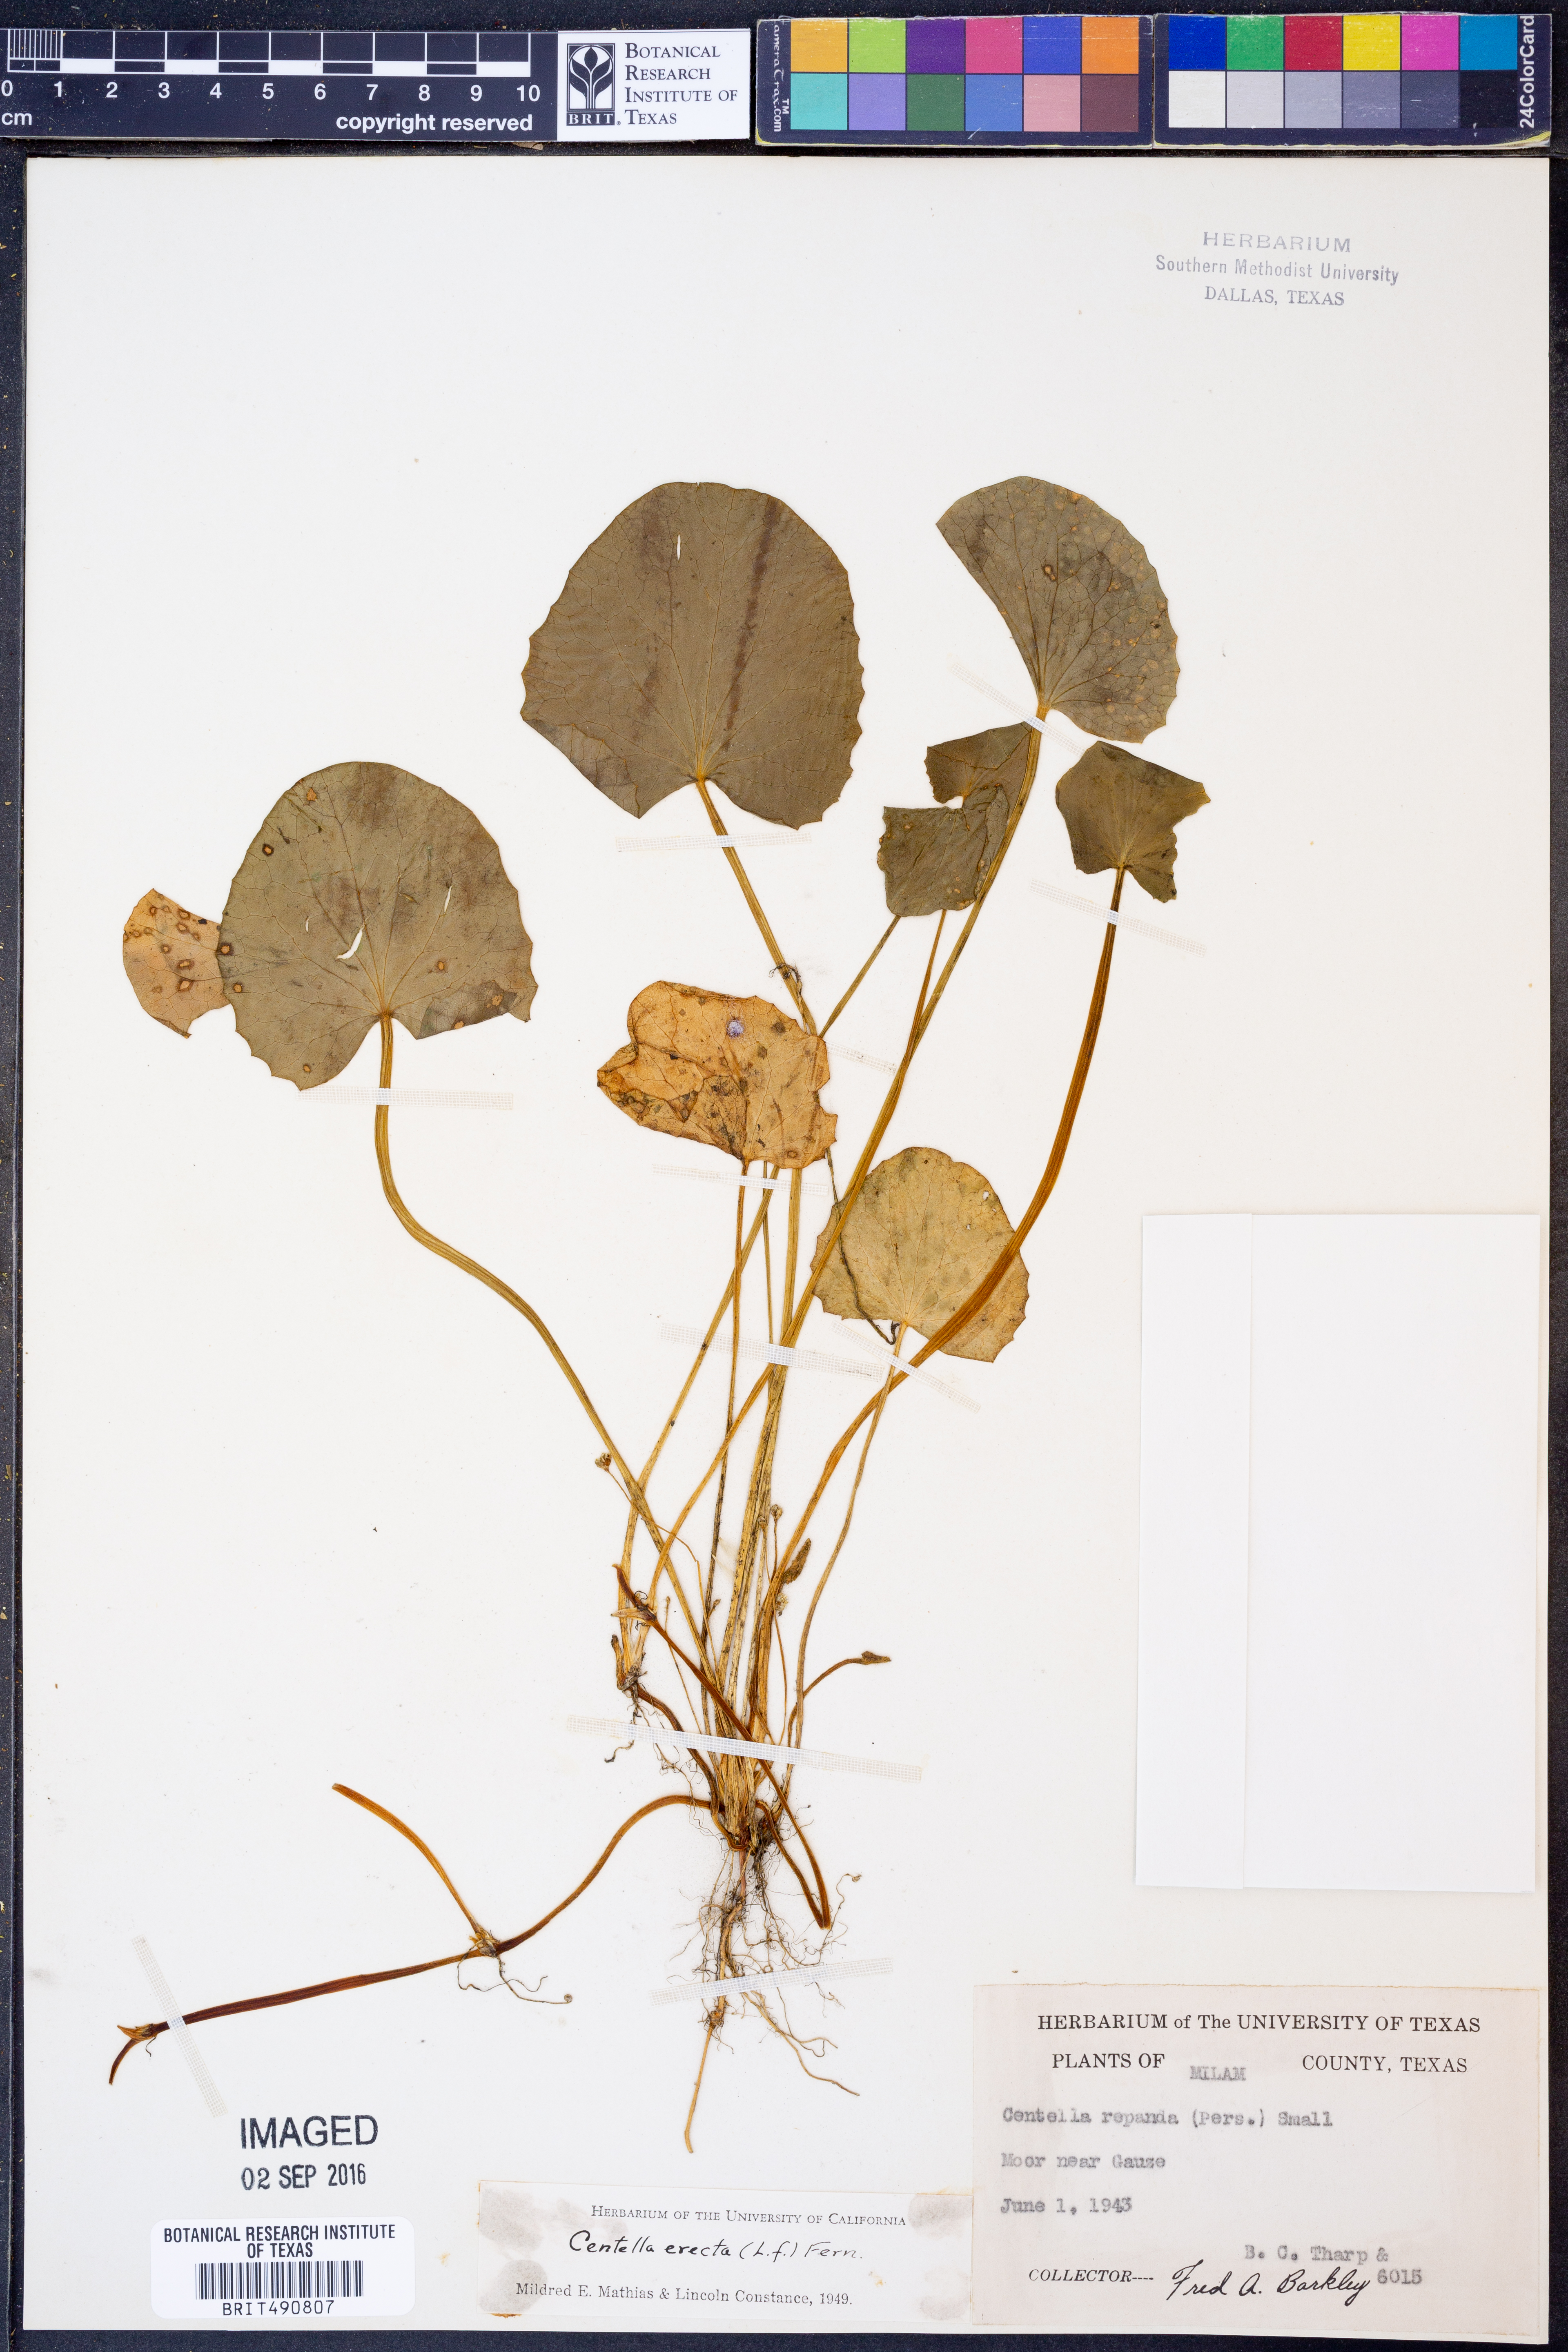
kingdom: Plantae
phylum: Tracheophyta
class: Magnoliopsida
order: Apiales
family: Apiaceae
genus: Centella
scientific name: Centella erecta
